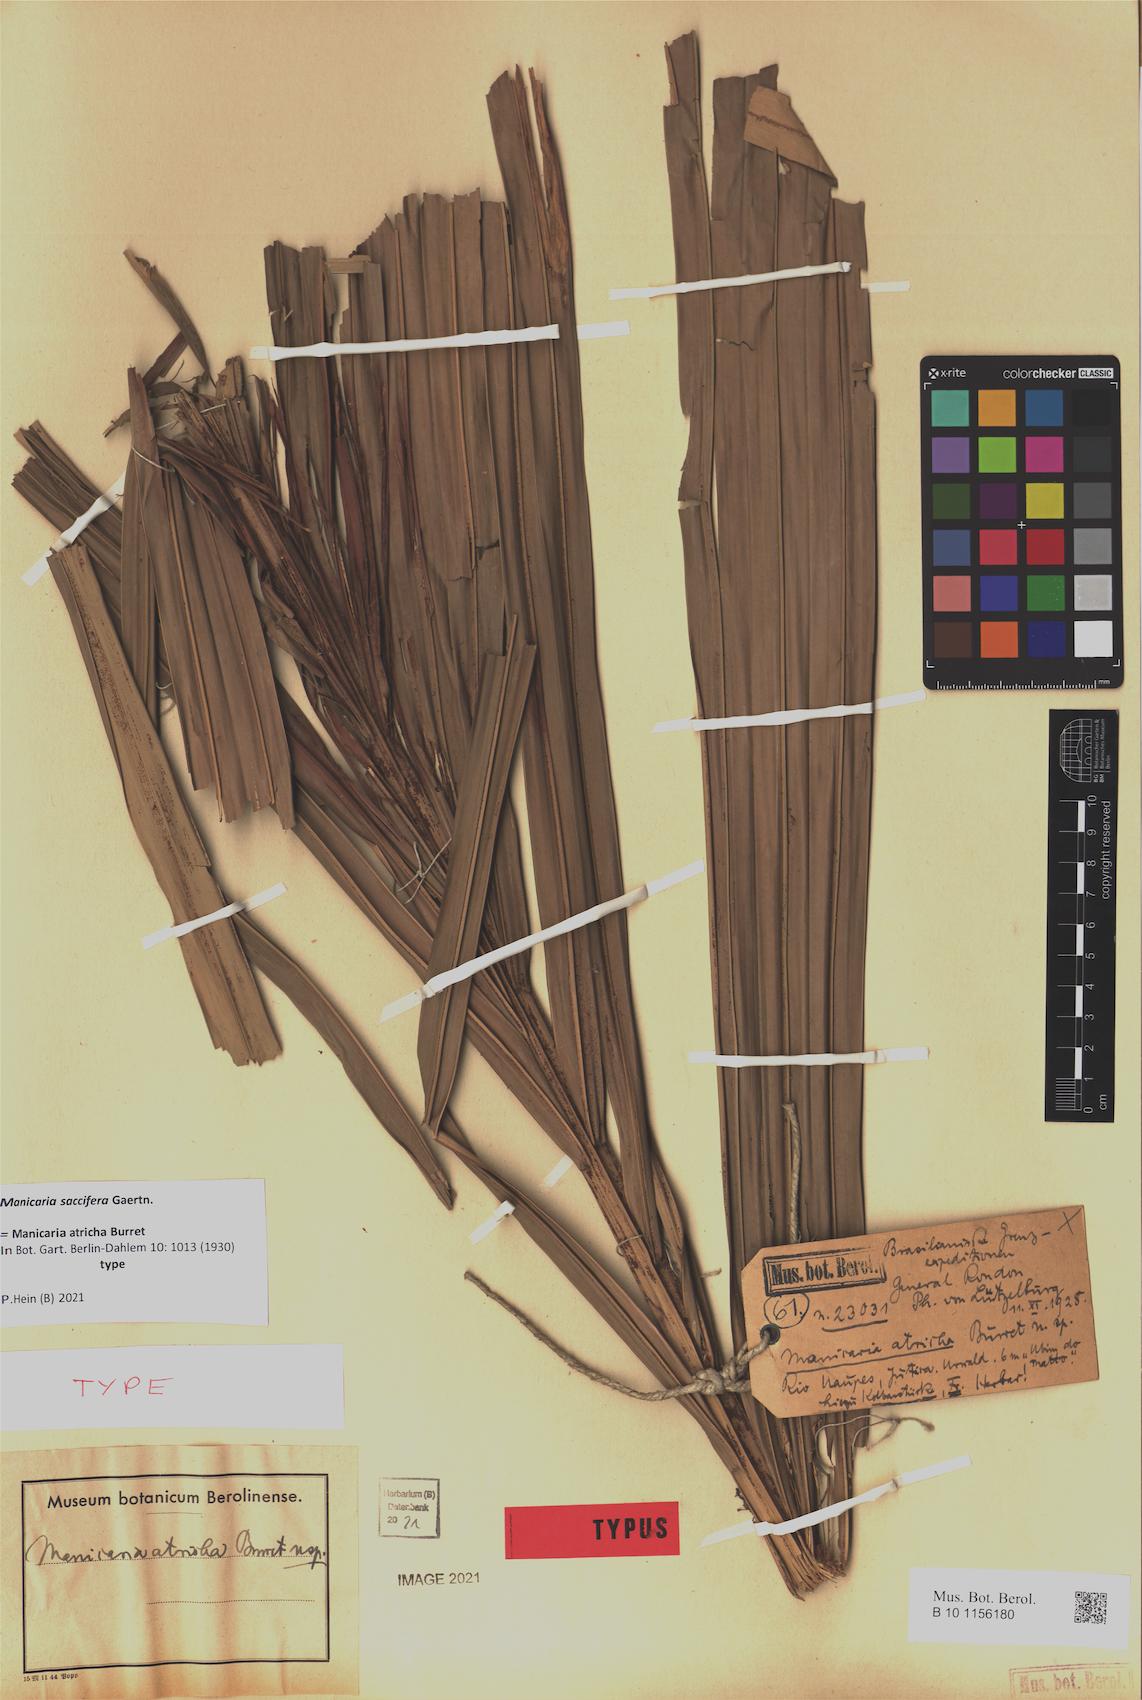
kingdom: Plantae
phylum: Tracheophyta
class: Liliopsida
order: Arecales
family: Arecaceae
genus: Manicaria
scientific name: Manicaria saccifera
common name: Sea coconut
